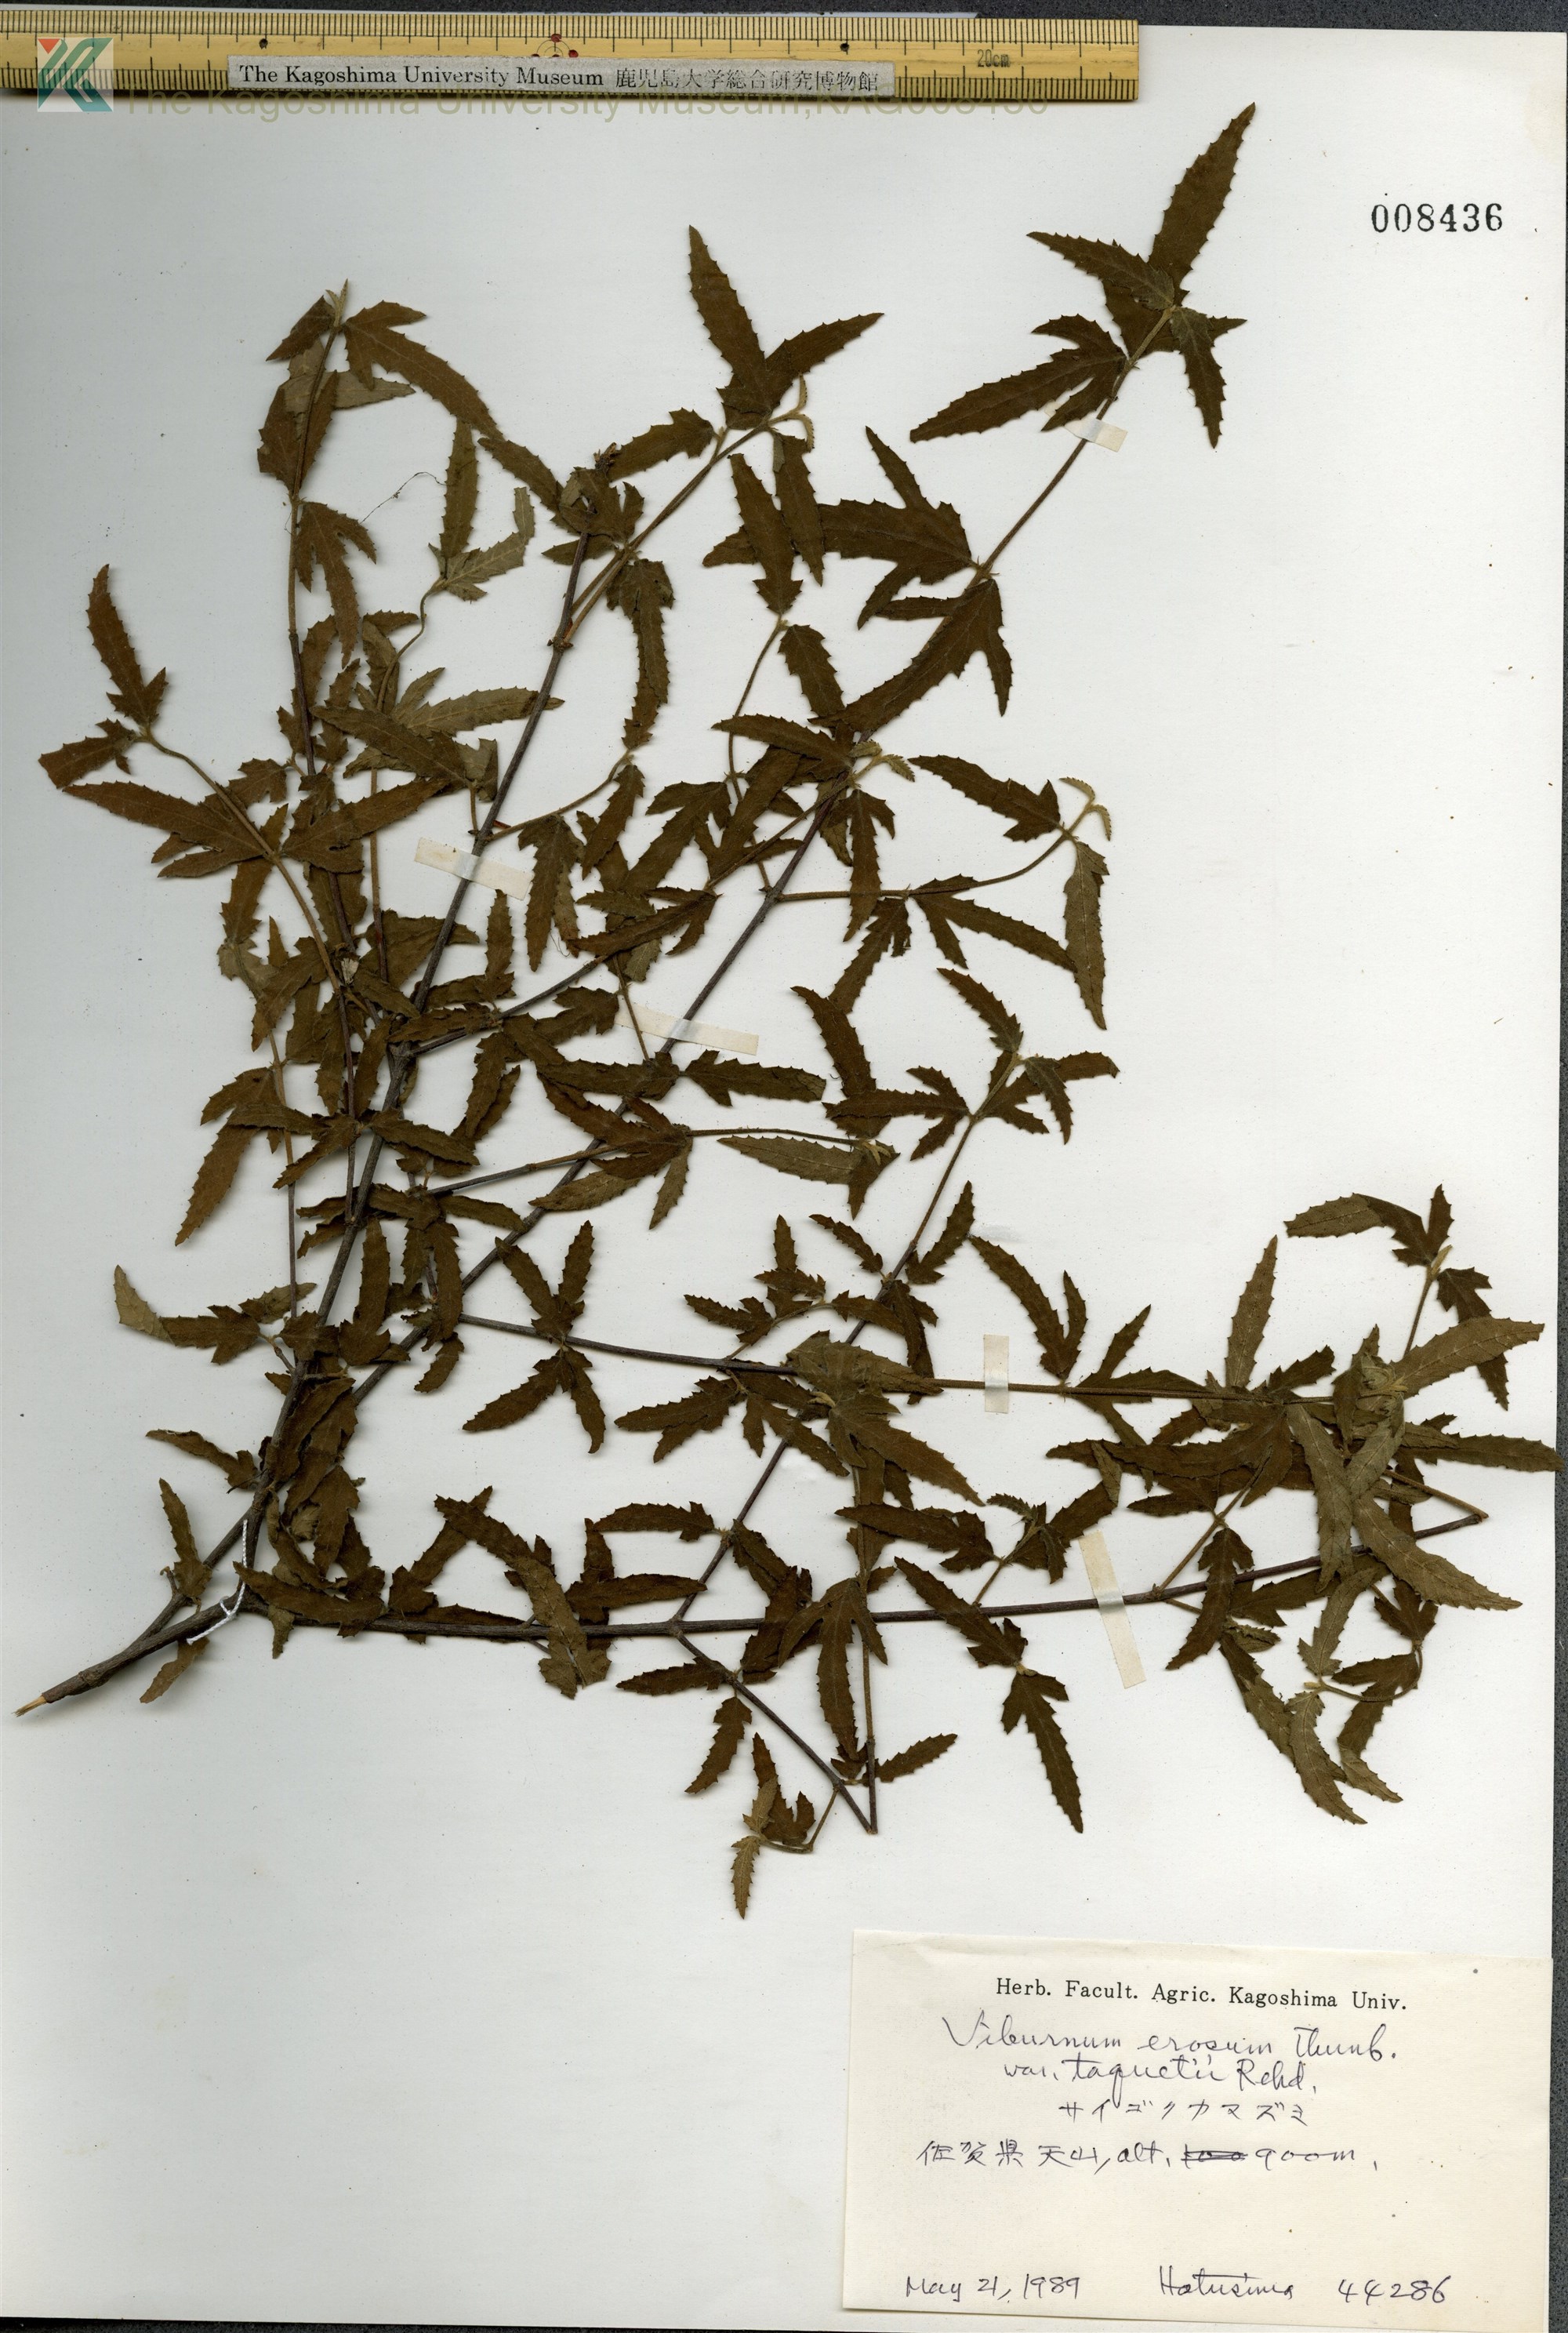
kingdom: Plantae
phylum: Tracheophyta
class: Magnoliopsida
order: Dipsacales
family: Viburnaceae
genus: Viburnum
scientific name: Viburnum erosum
